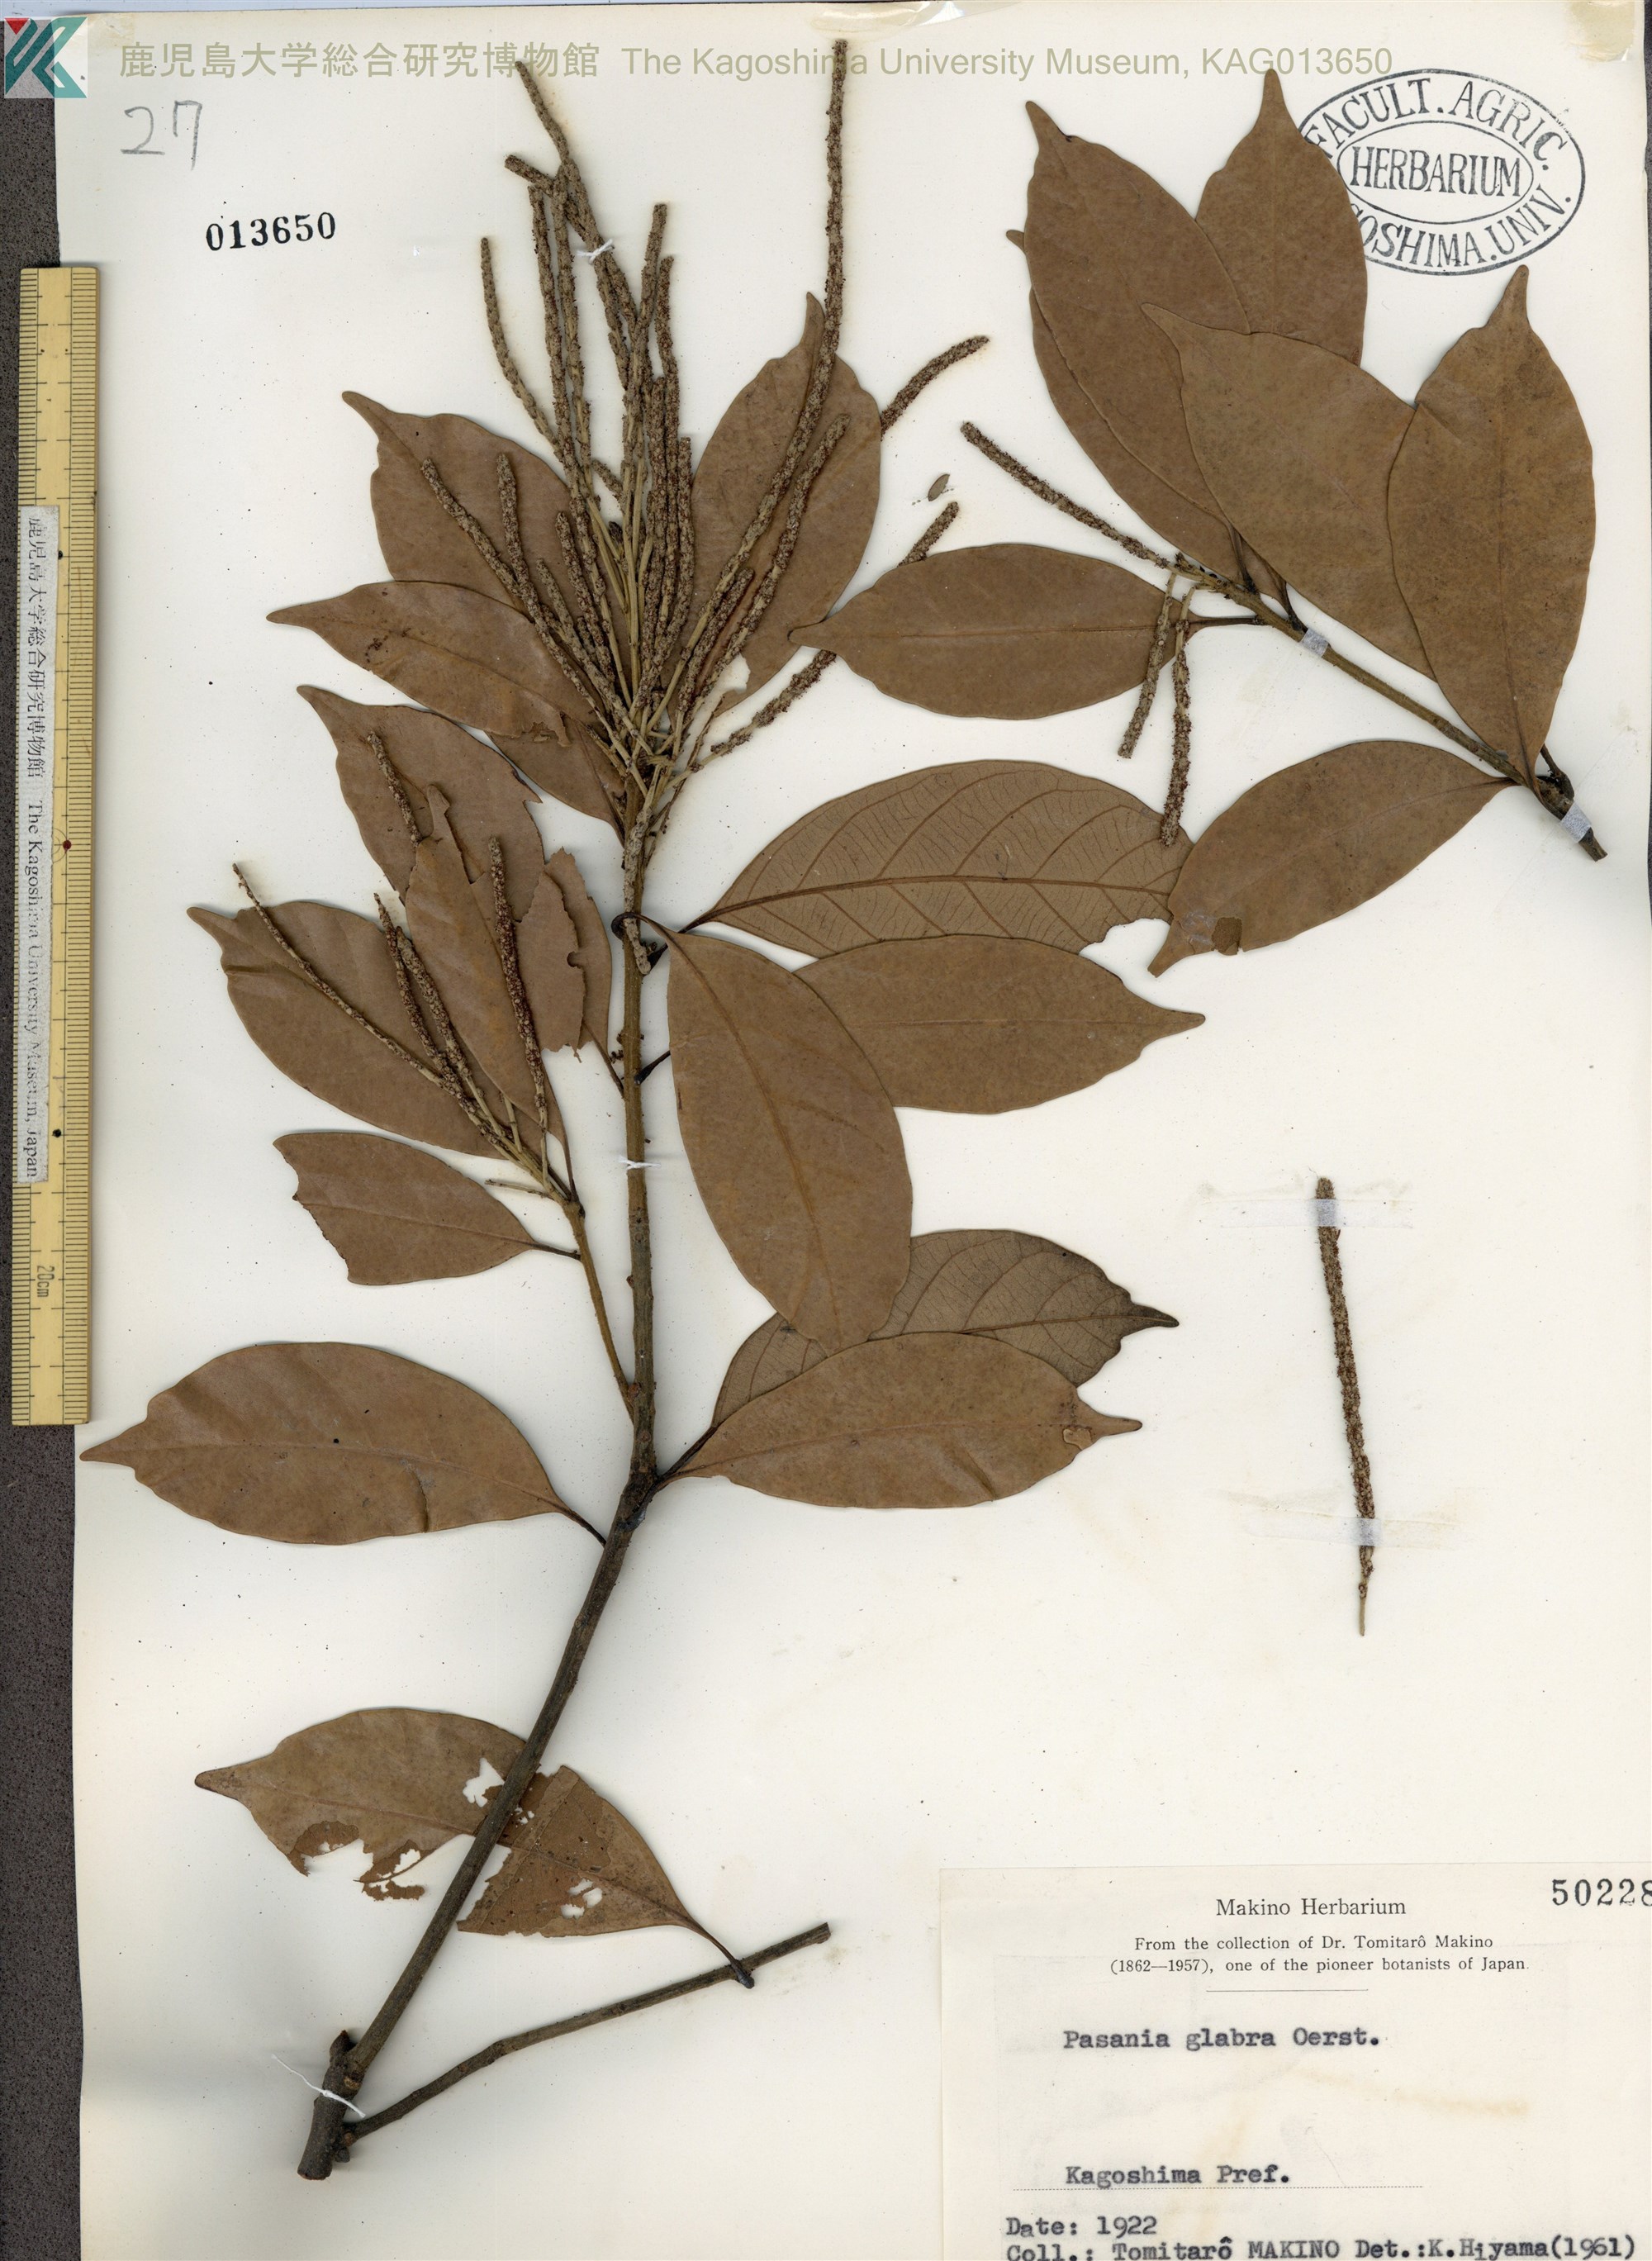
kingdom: Plantae
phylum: Tracheophyta
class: Magnoliopsida
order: Fagales
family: Fagaceae
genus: Lithocarpus
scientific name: Lithocarpus glaber
